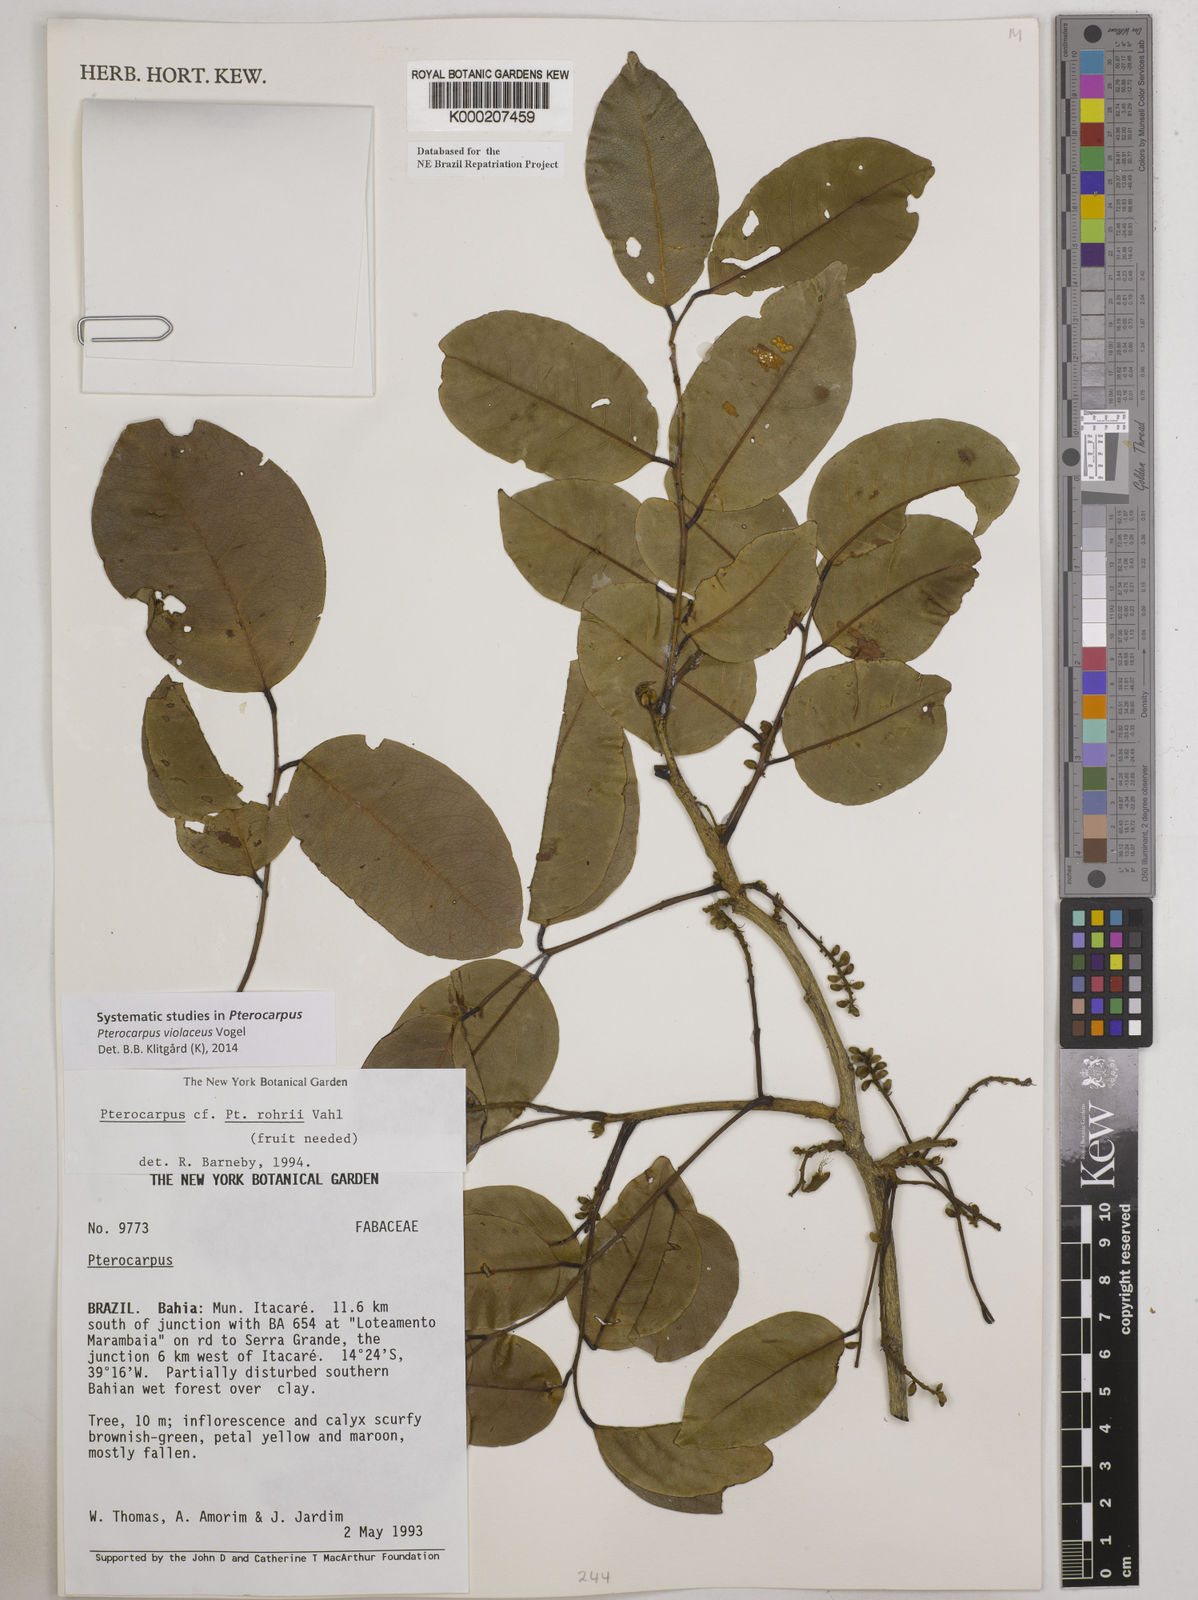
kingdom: Plantae
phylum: Tracheophyta
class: Magnoliopsida
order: Fabales
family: Fabaceae
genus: Pterocarpus
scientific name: Pterocarpus rohrii
